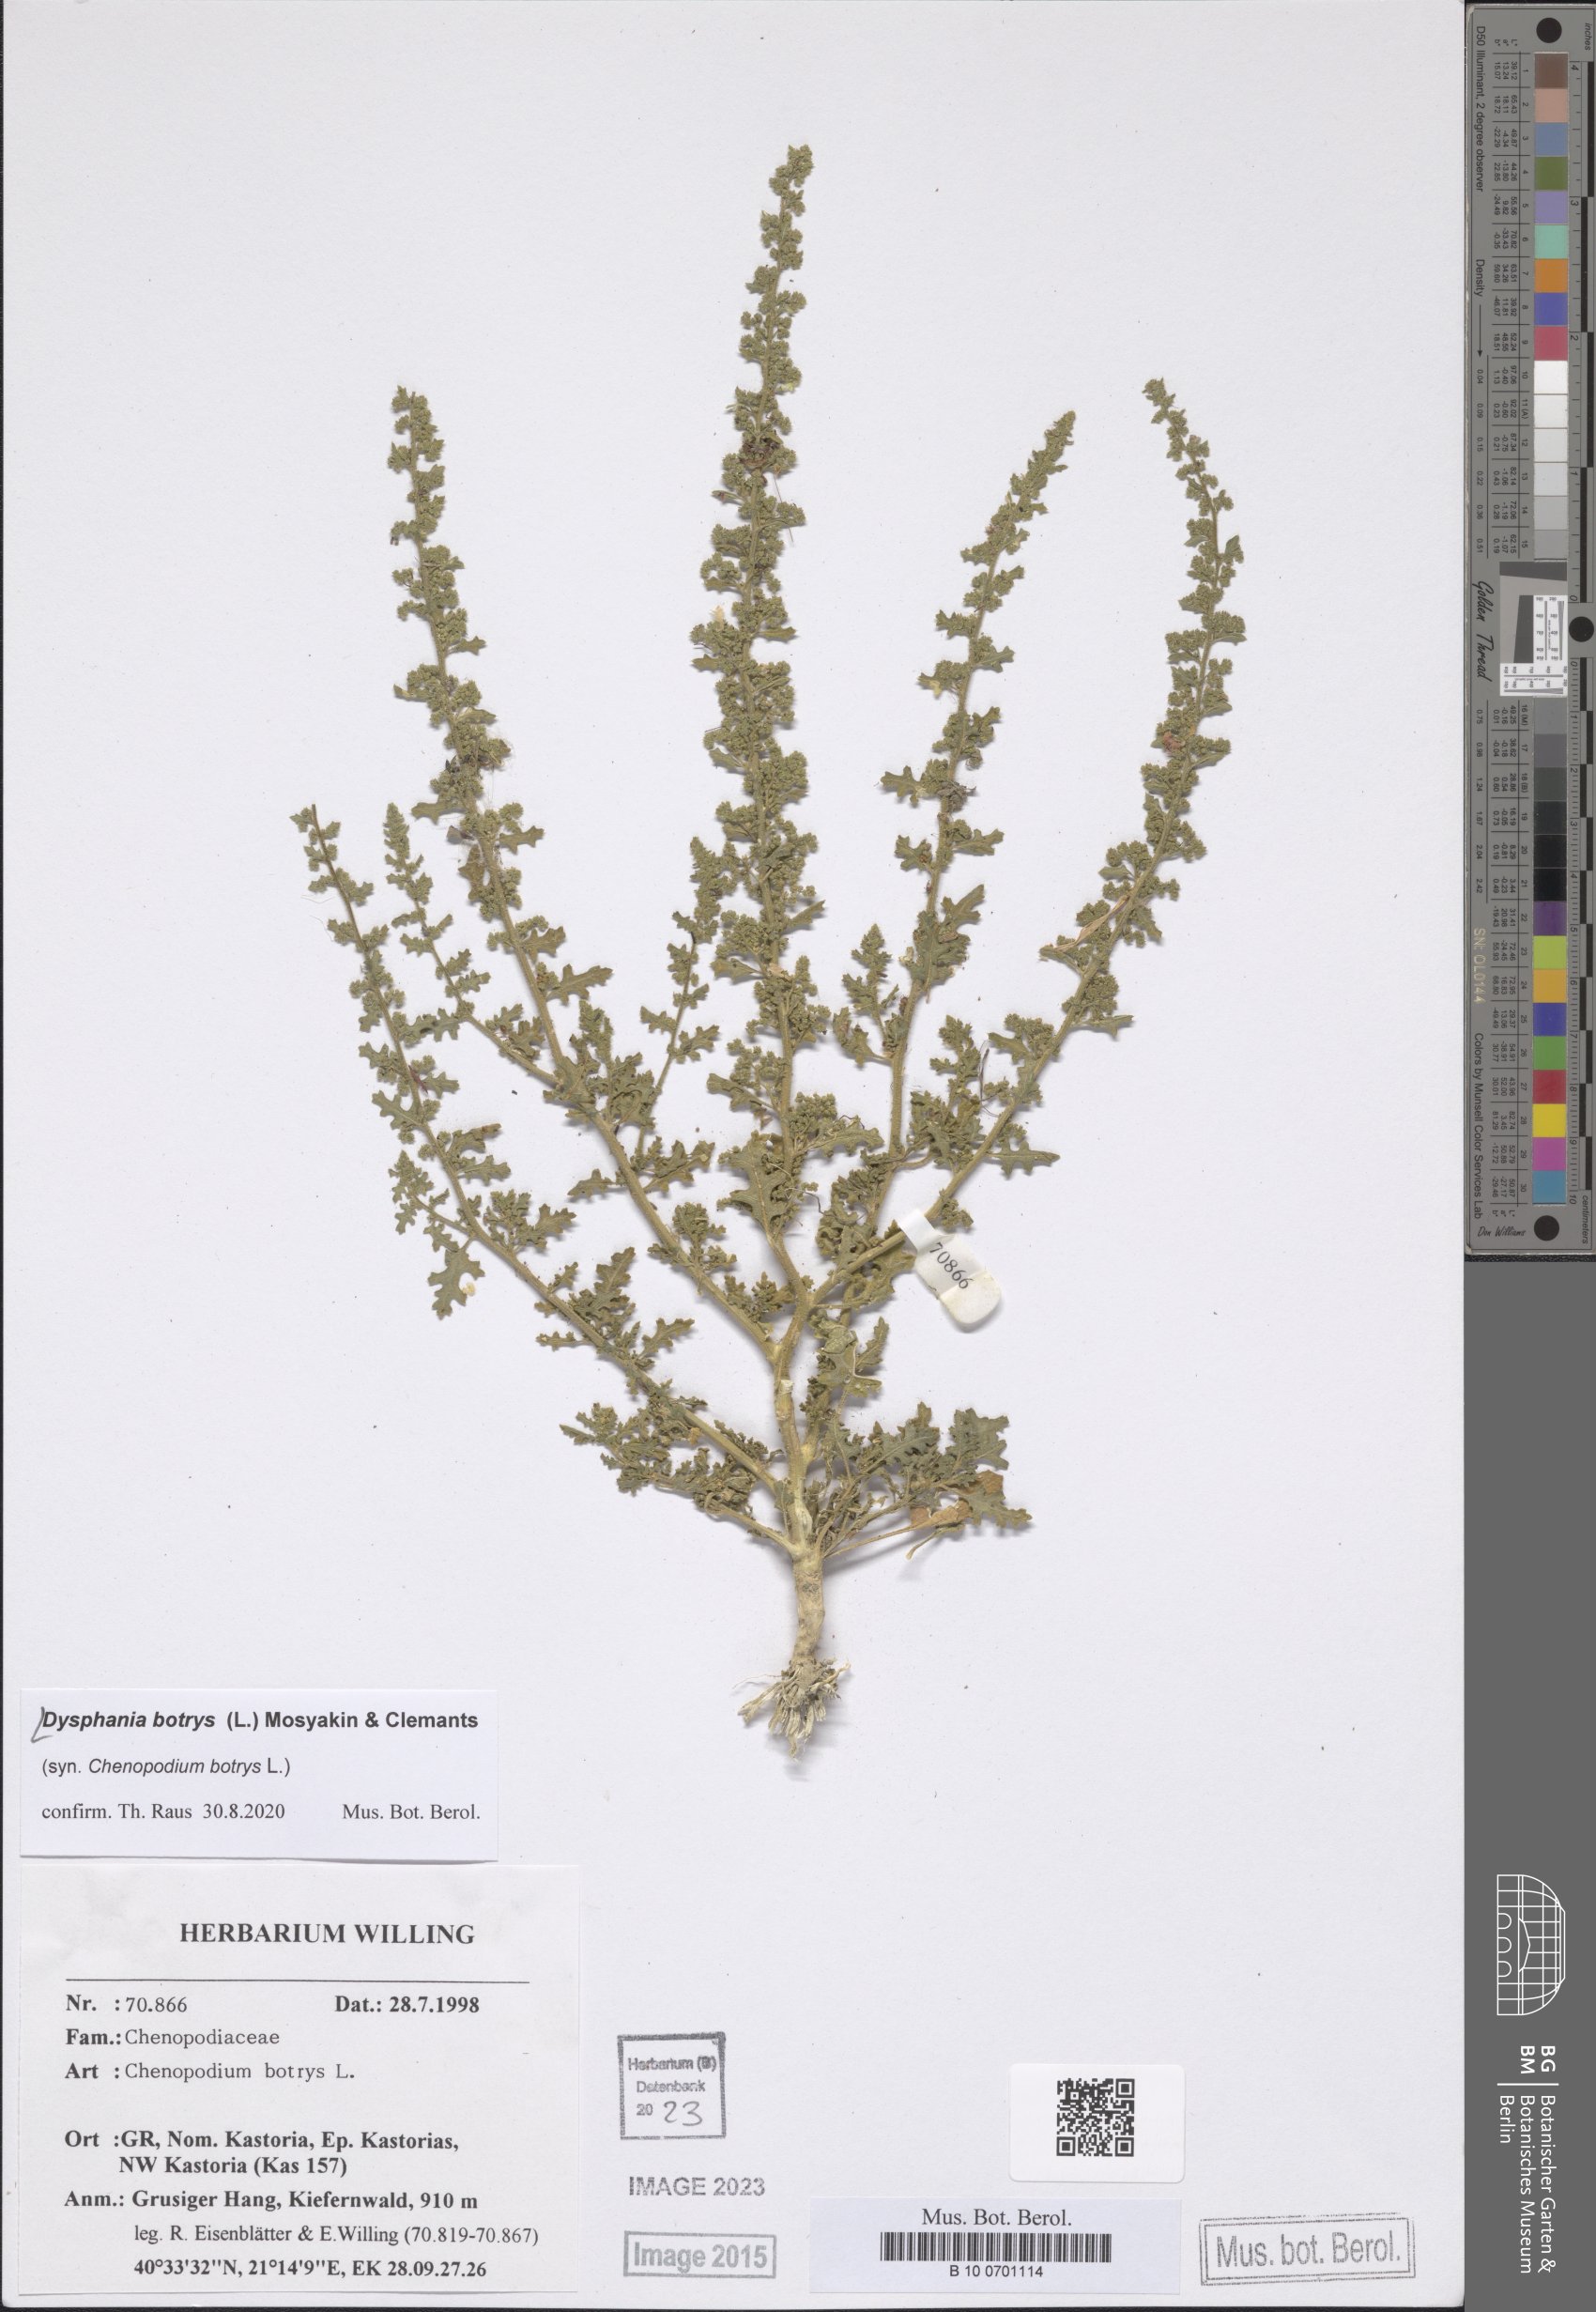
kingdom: Plantae
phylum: Tracheophyta
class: Magnoliopsida
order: Caryophyllales
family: Amaranthaceae
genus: Dysphania
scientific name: Dysphania botrys
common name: Feather-geranium
